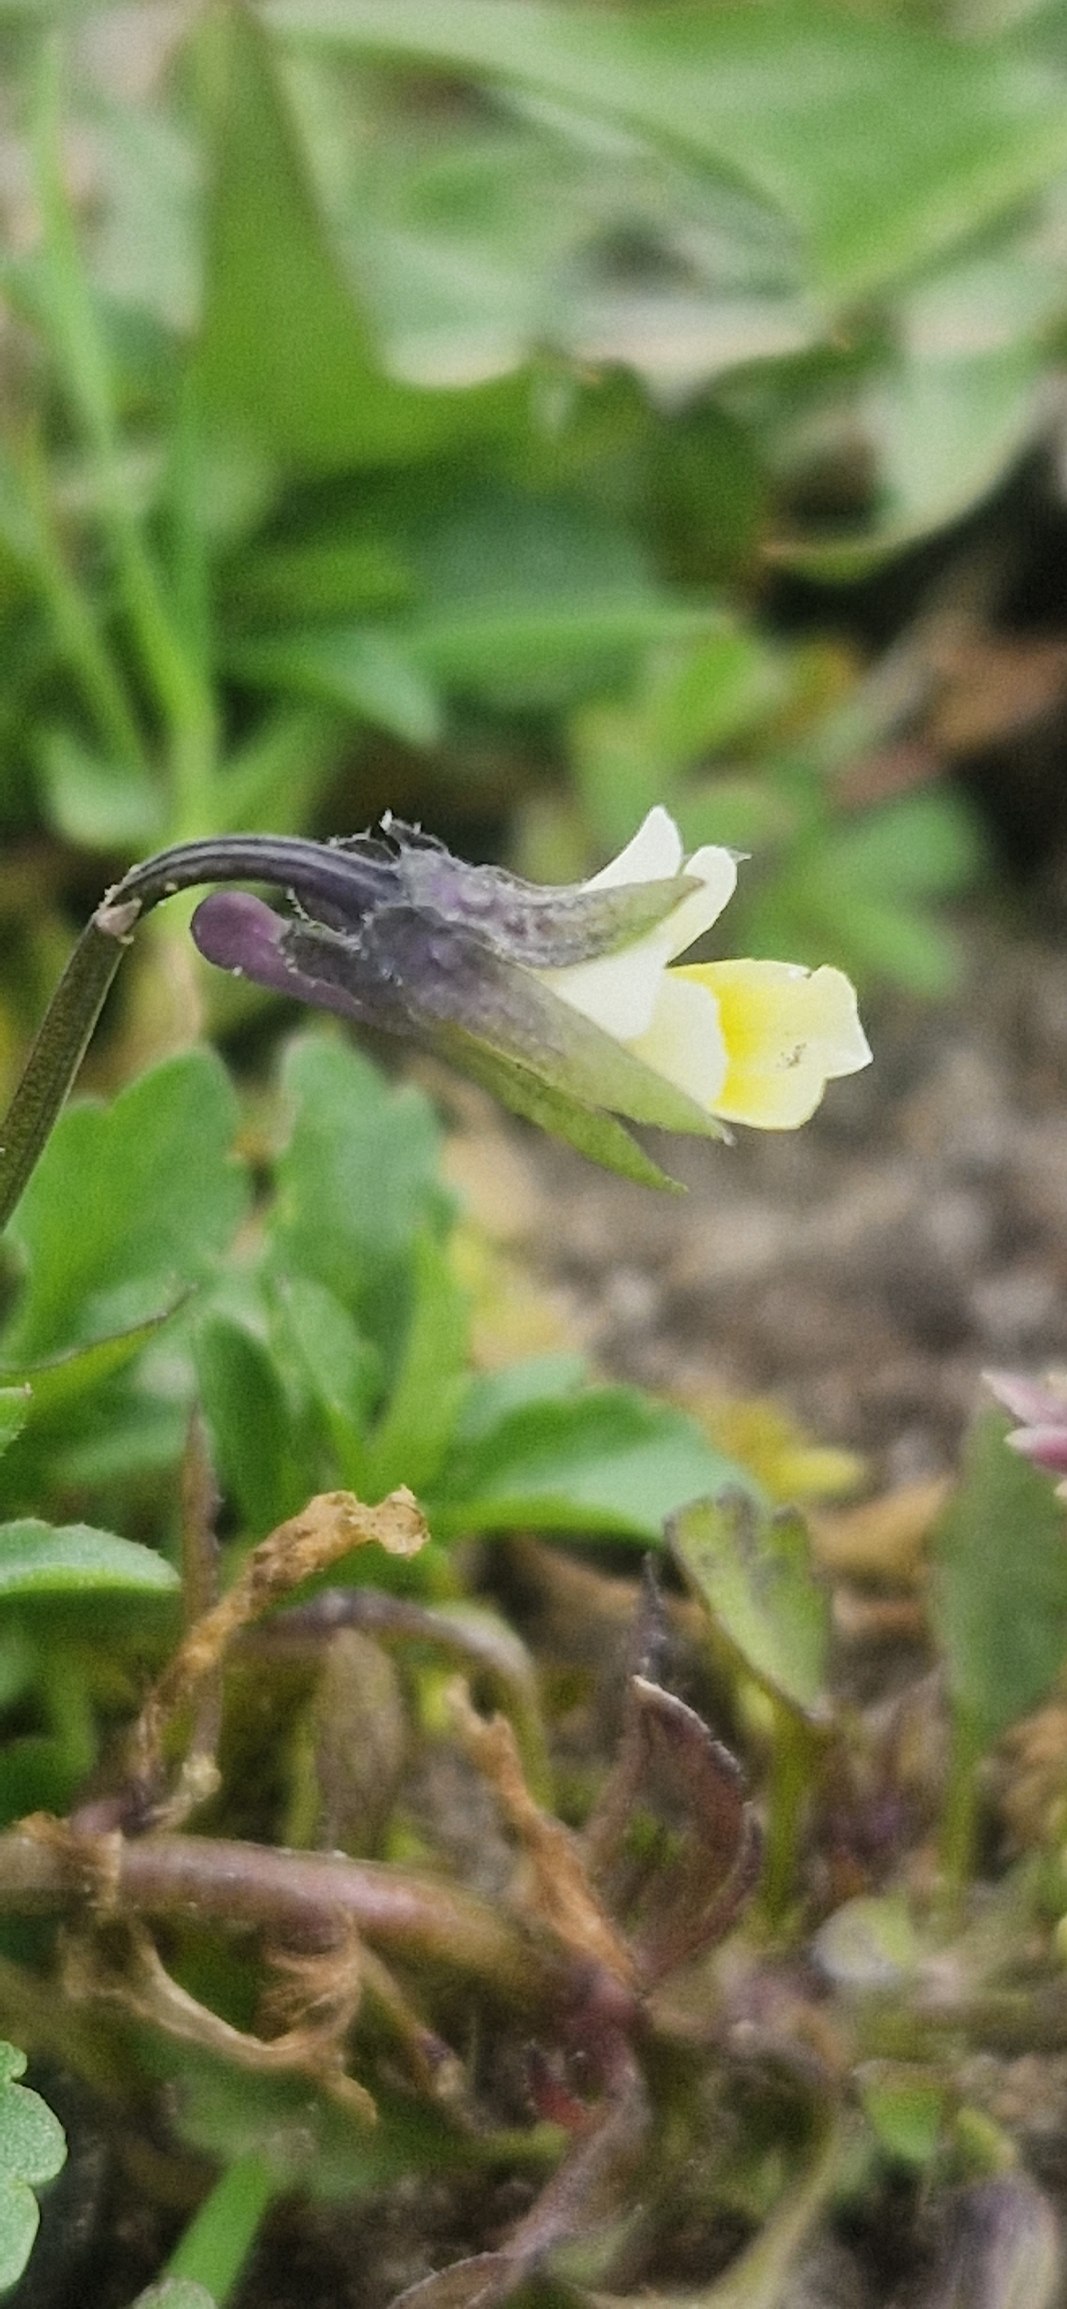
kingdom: Plantae
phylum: Tracheophyta
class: Magnoliopsida
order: Malpighiales
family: Violaceae
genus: Viola
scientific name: Viola arvensis
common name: Ager-stedmoderblomst
